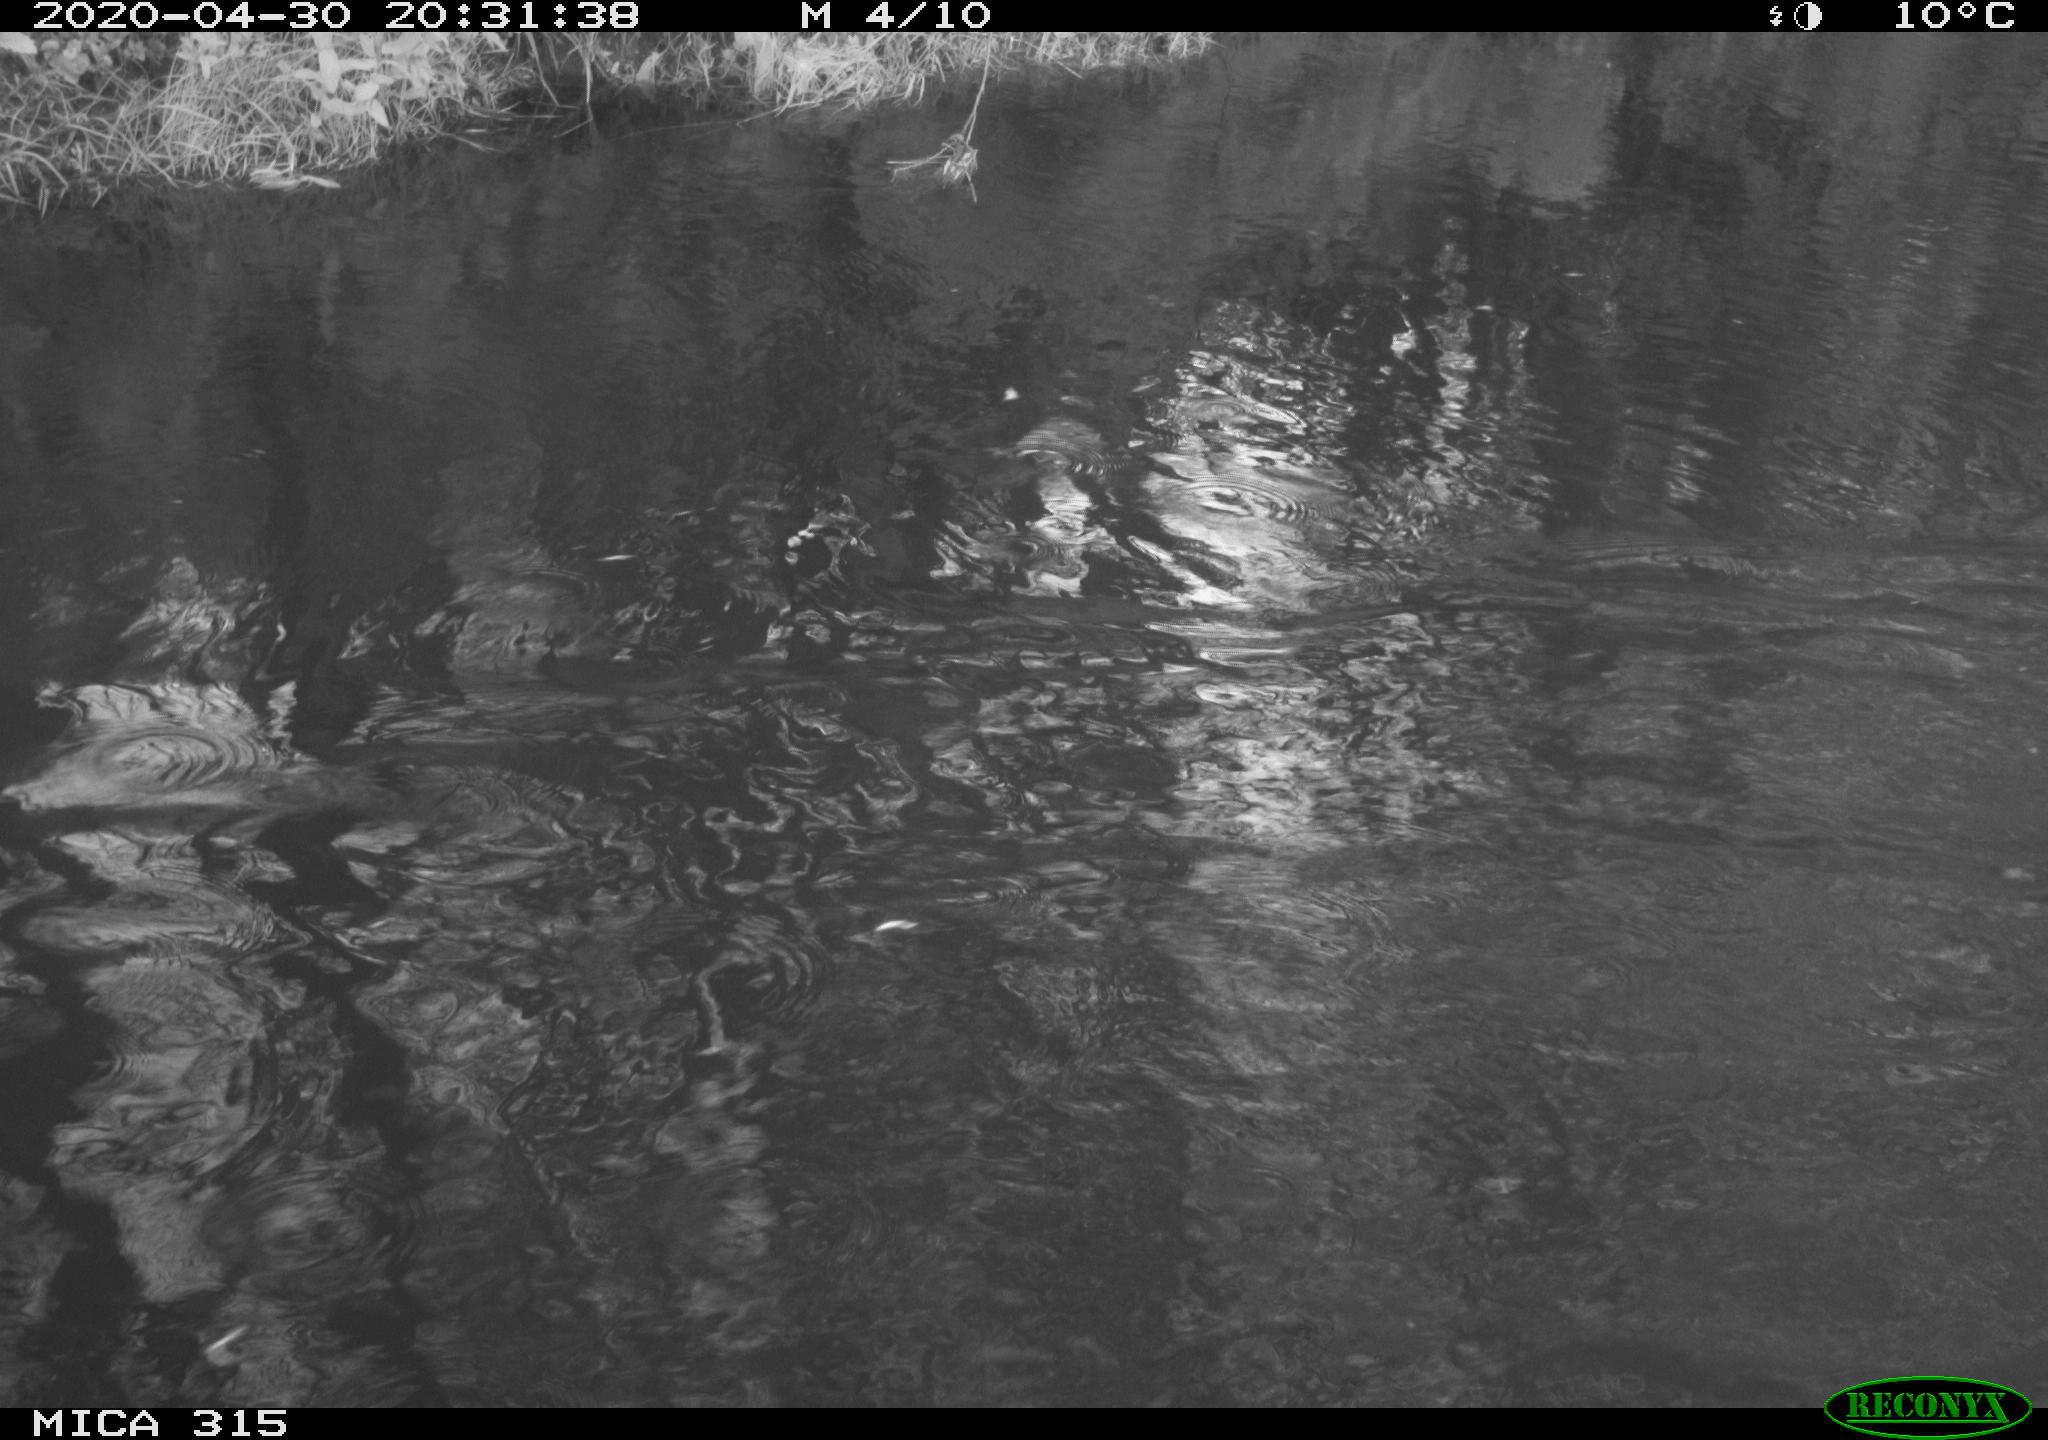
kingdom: Animalia
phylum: Chordata
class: Aves
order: Anseriformes
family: Anatidae
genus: Anas
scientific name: Anas platyrhynchos
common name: Mallard
